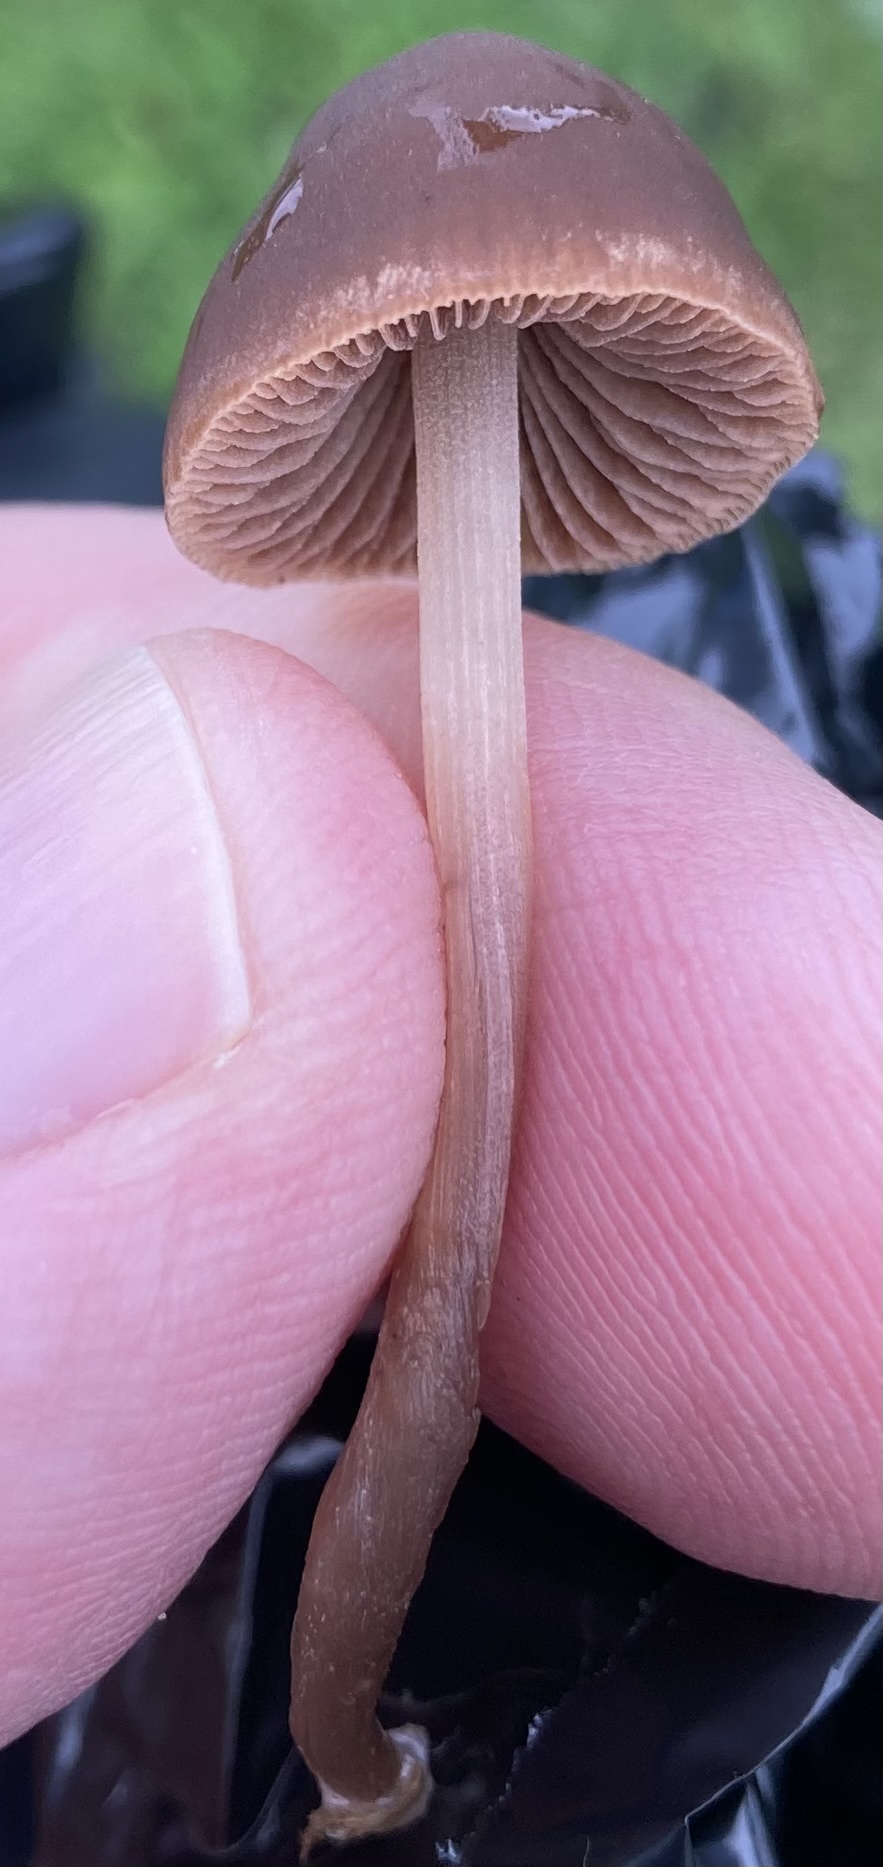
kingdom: Fungi
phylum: Basidiomycota
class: Agaricomycetes
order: Agaricales
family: Bolbitiaceae
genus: Panaeolina
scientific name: Panaeolina foenisecii
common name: høslætsvamp
